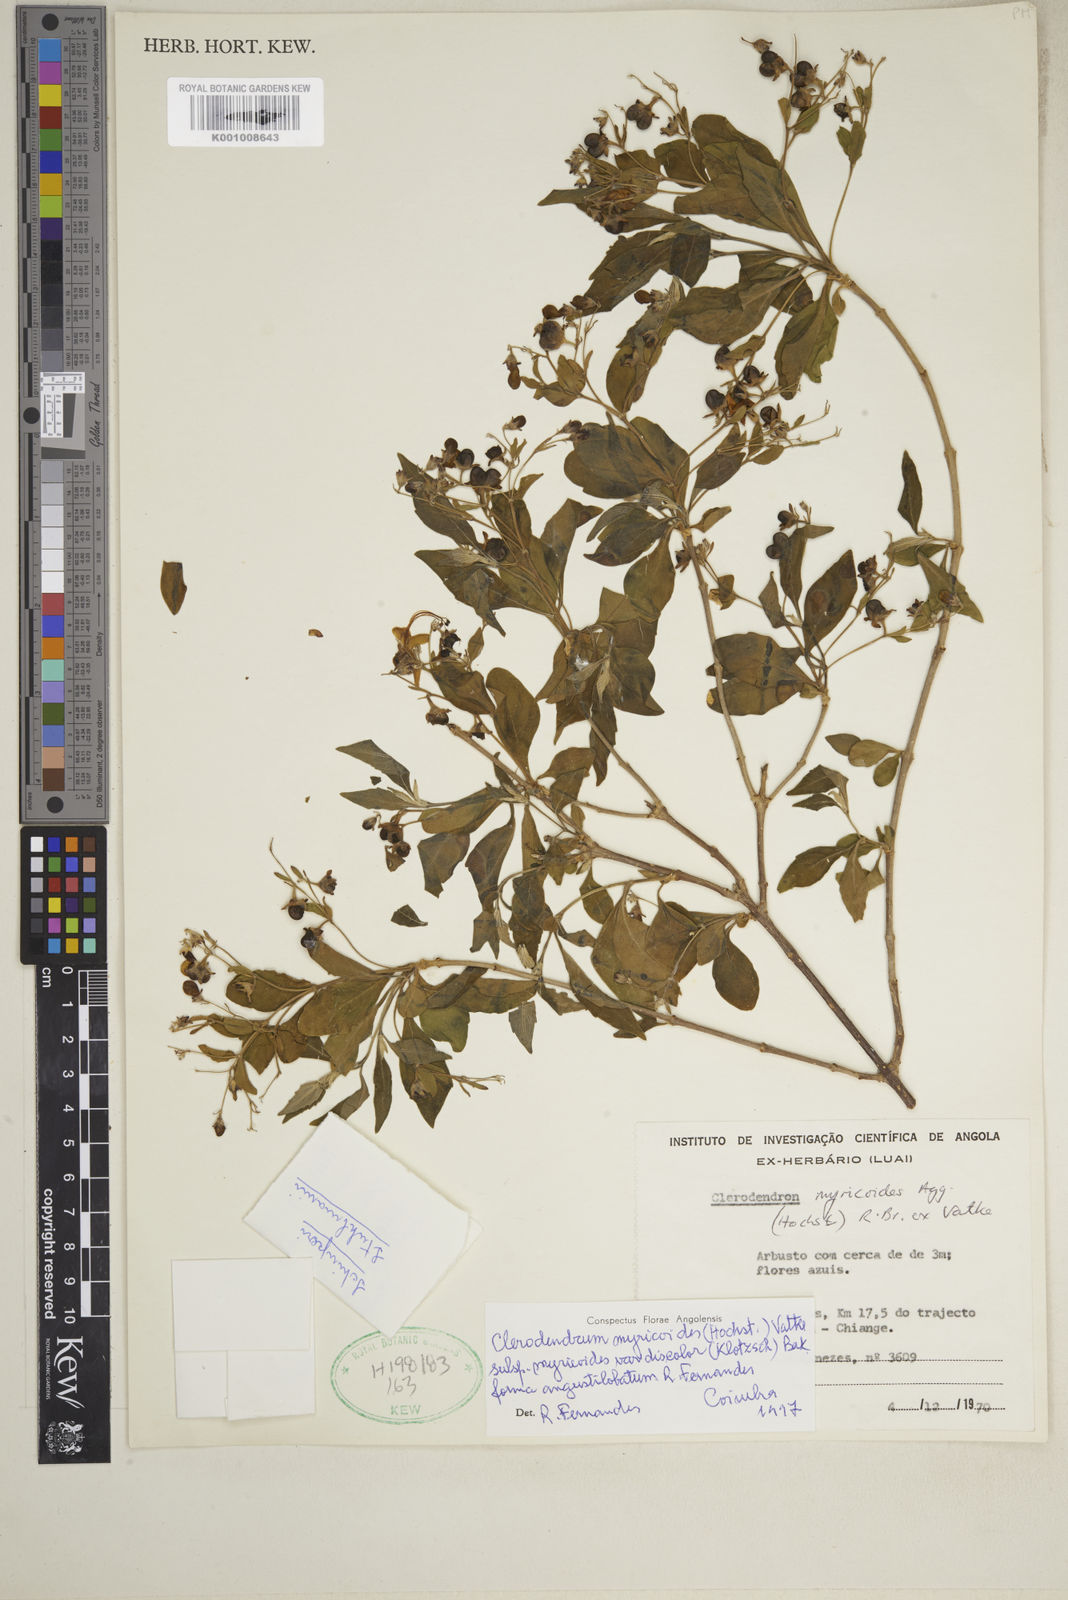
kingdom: Plantae
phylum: Tracheophyta
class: Magnoliopsida
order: Lamiales
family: Lamiaceae
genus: Rotheca
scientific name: Rotheca myricoides
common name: Cats-whiskers
